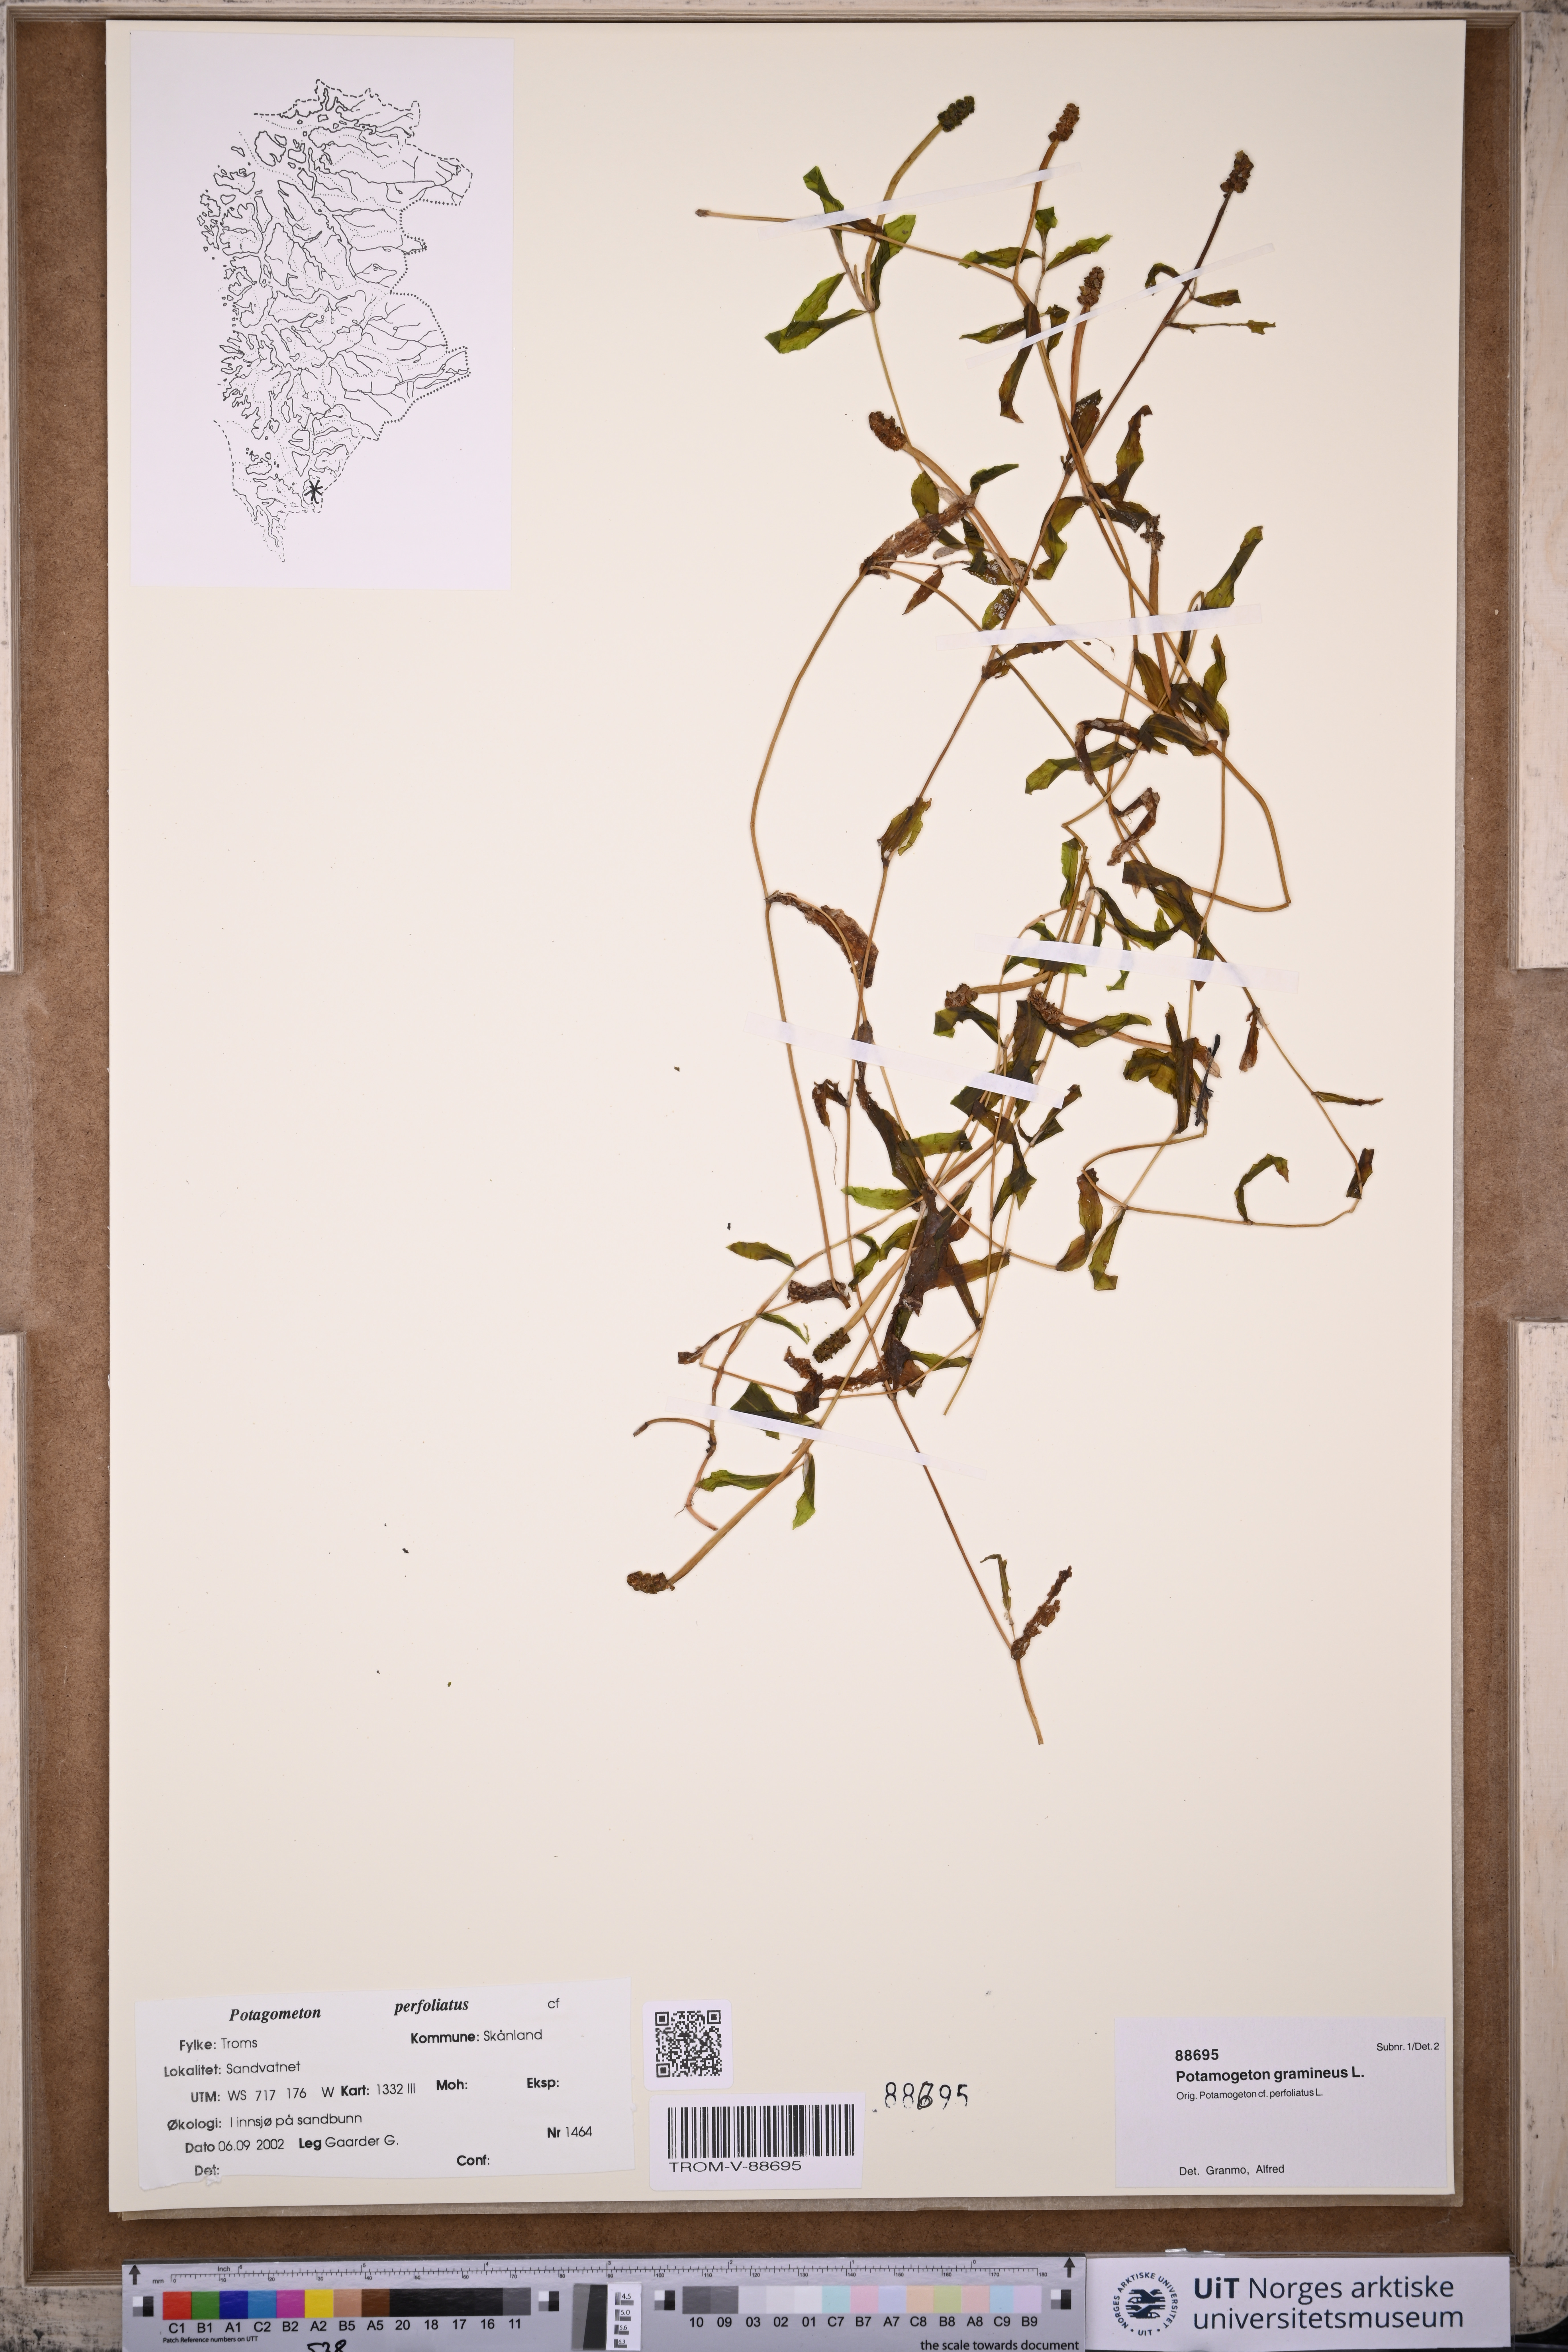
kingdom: Plantae
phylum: Tracheophyta
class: Liliopsida
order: Alismatales
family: Potamogetonaceae
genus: Potamogeton
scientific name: Potamogeton gramineus
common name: Various-leaved pondweed
